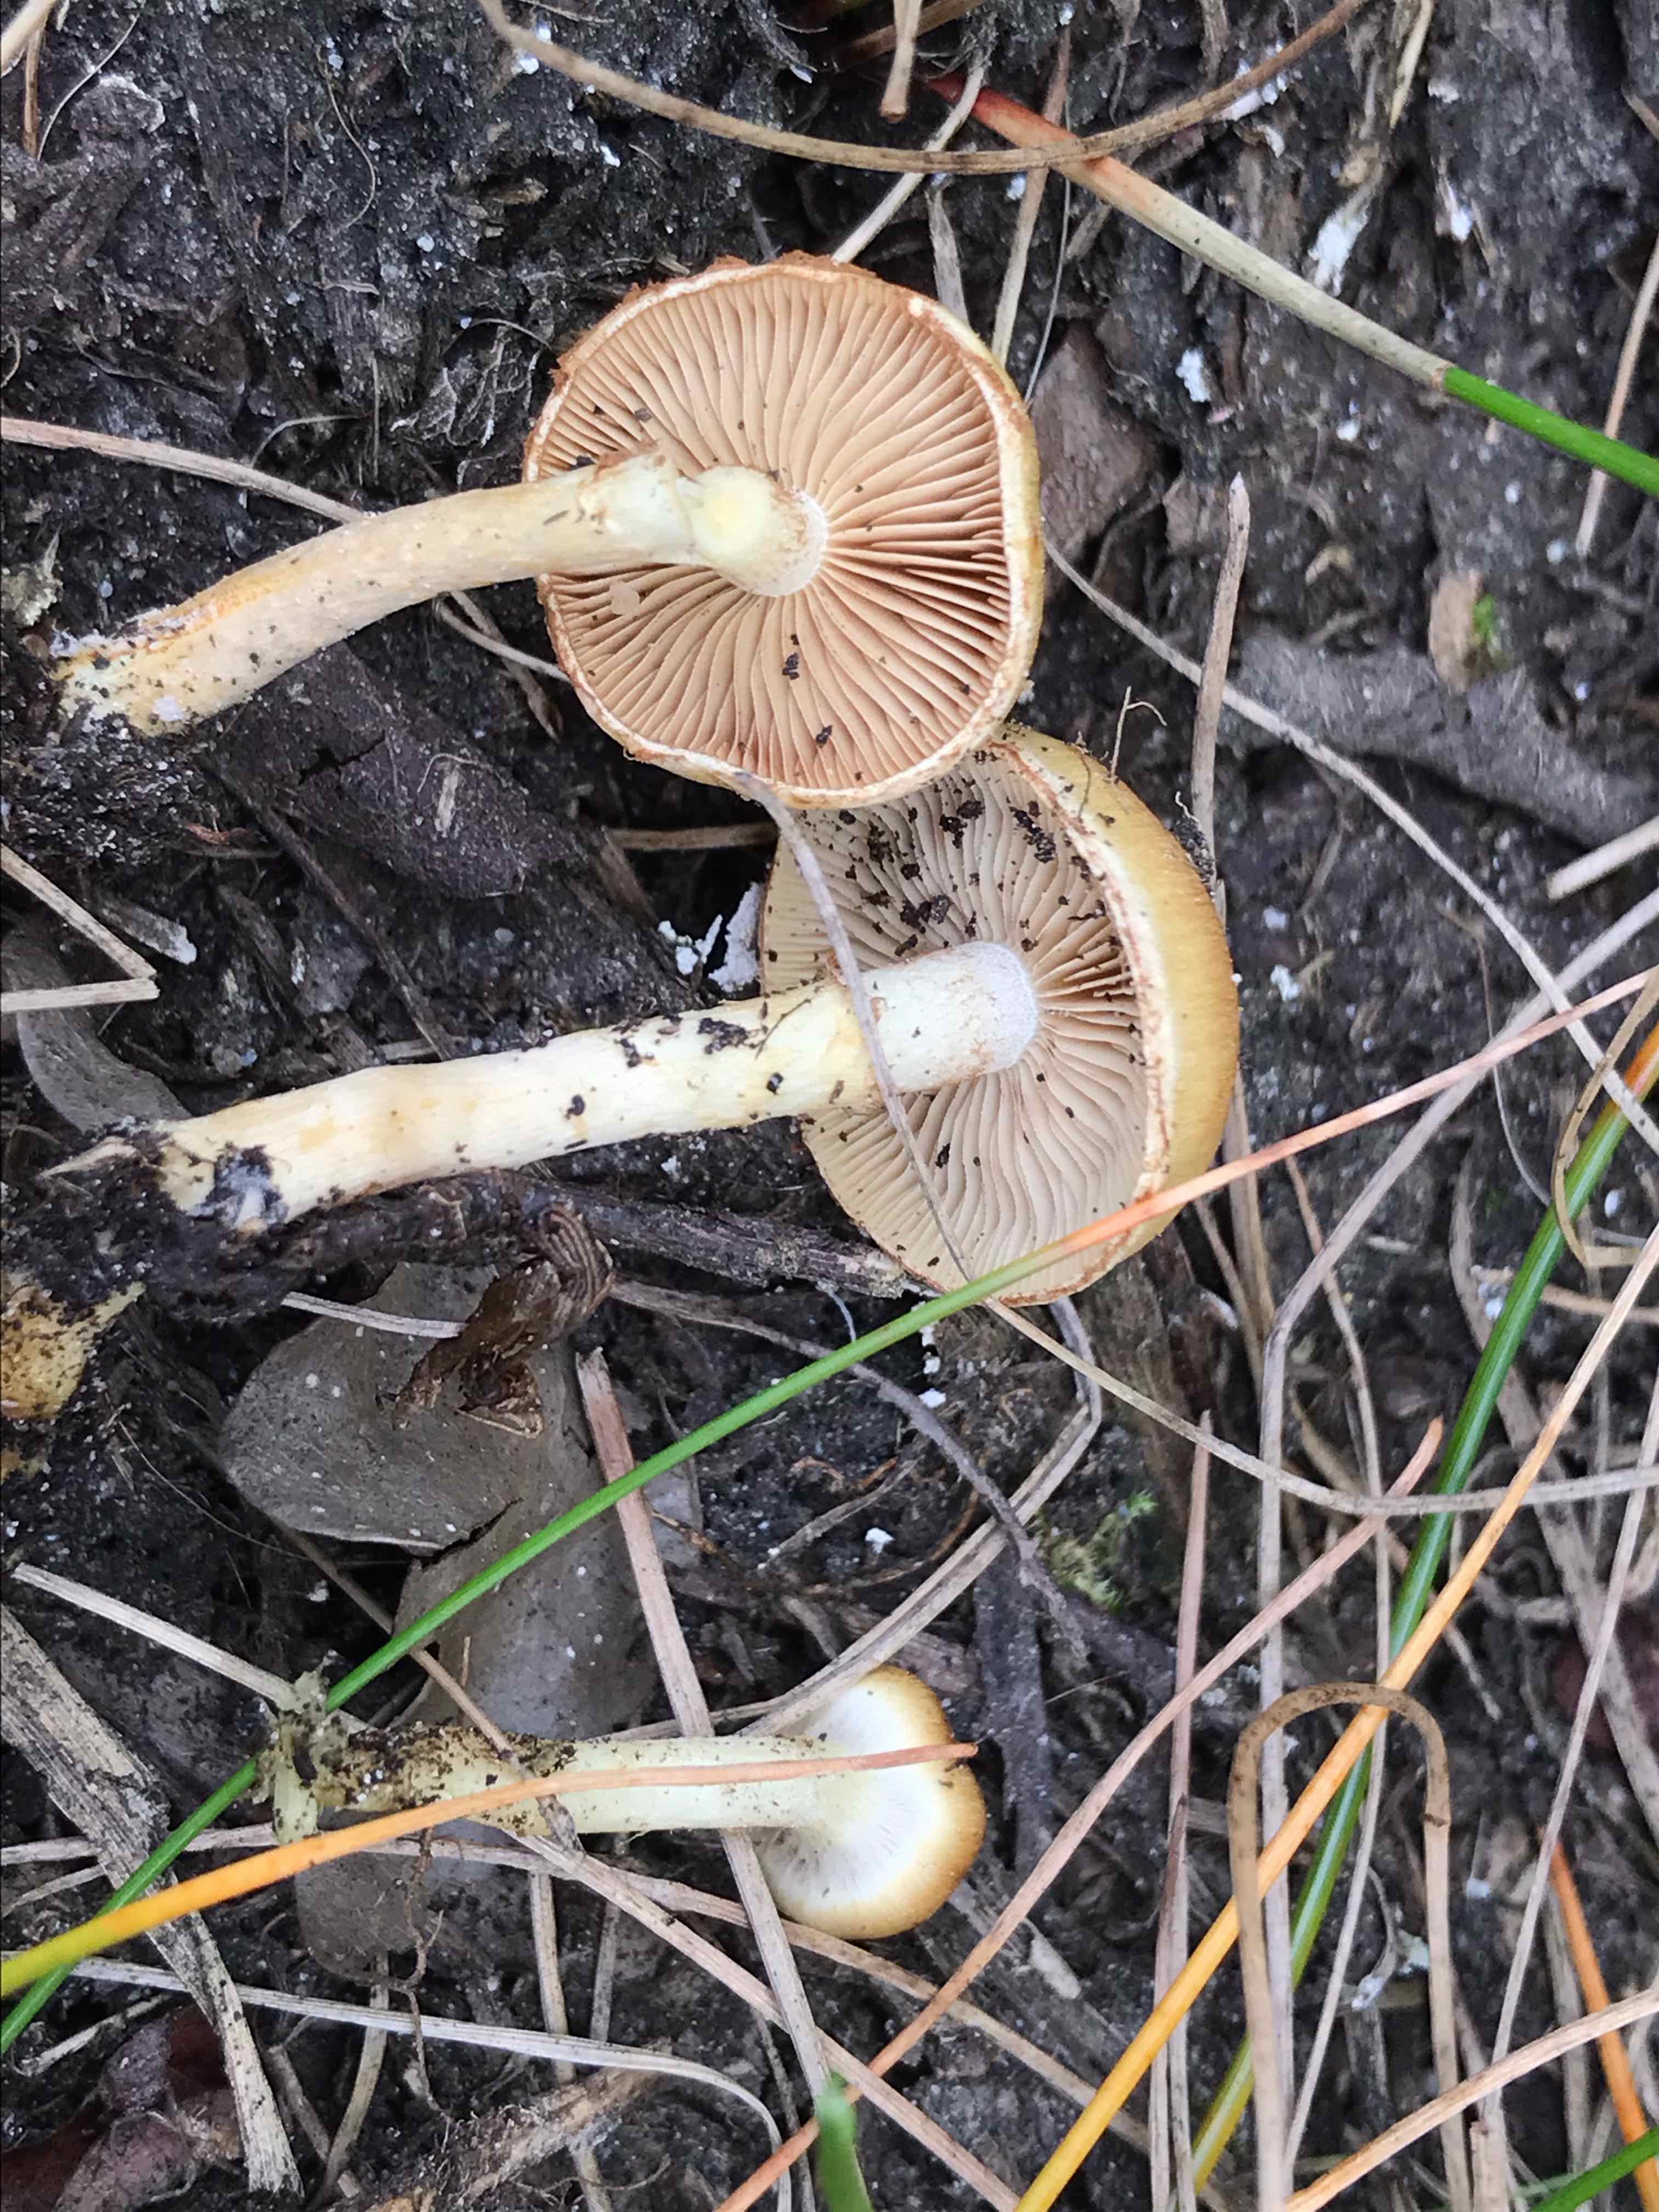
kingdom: Fungi
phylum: Basidiomycota
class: Agaricomycetes
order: Agaricales
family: Strophariaceae
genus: Pholiota
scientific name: Pholiota conissans
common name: pile-skælhat
